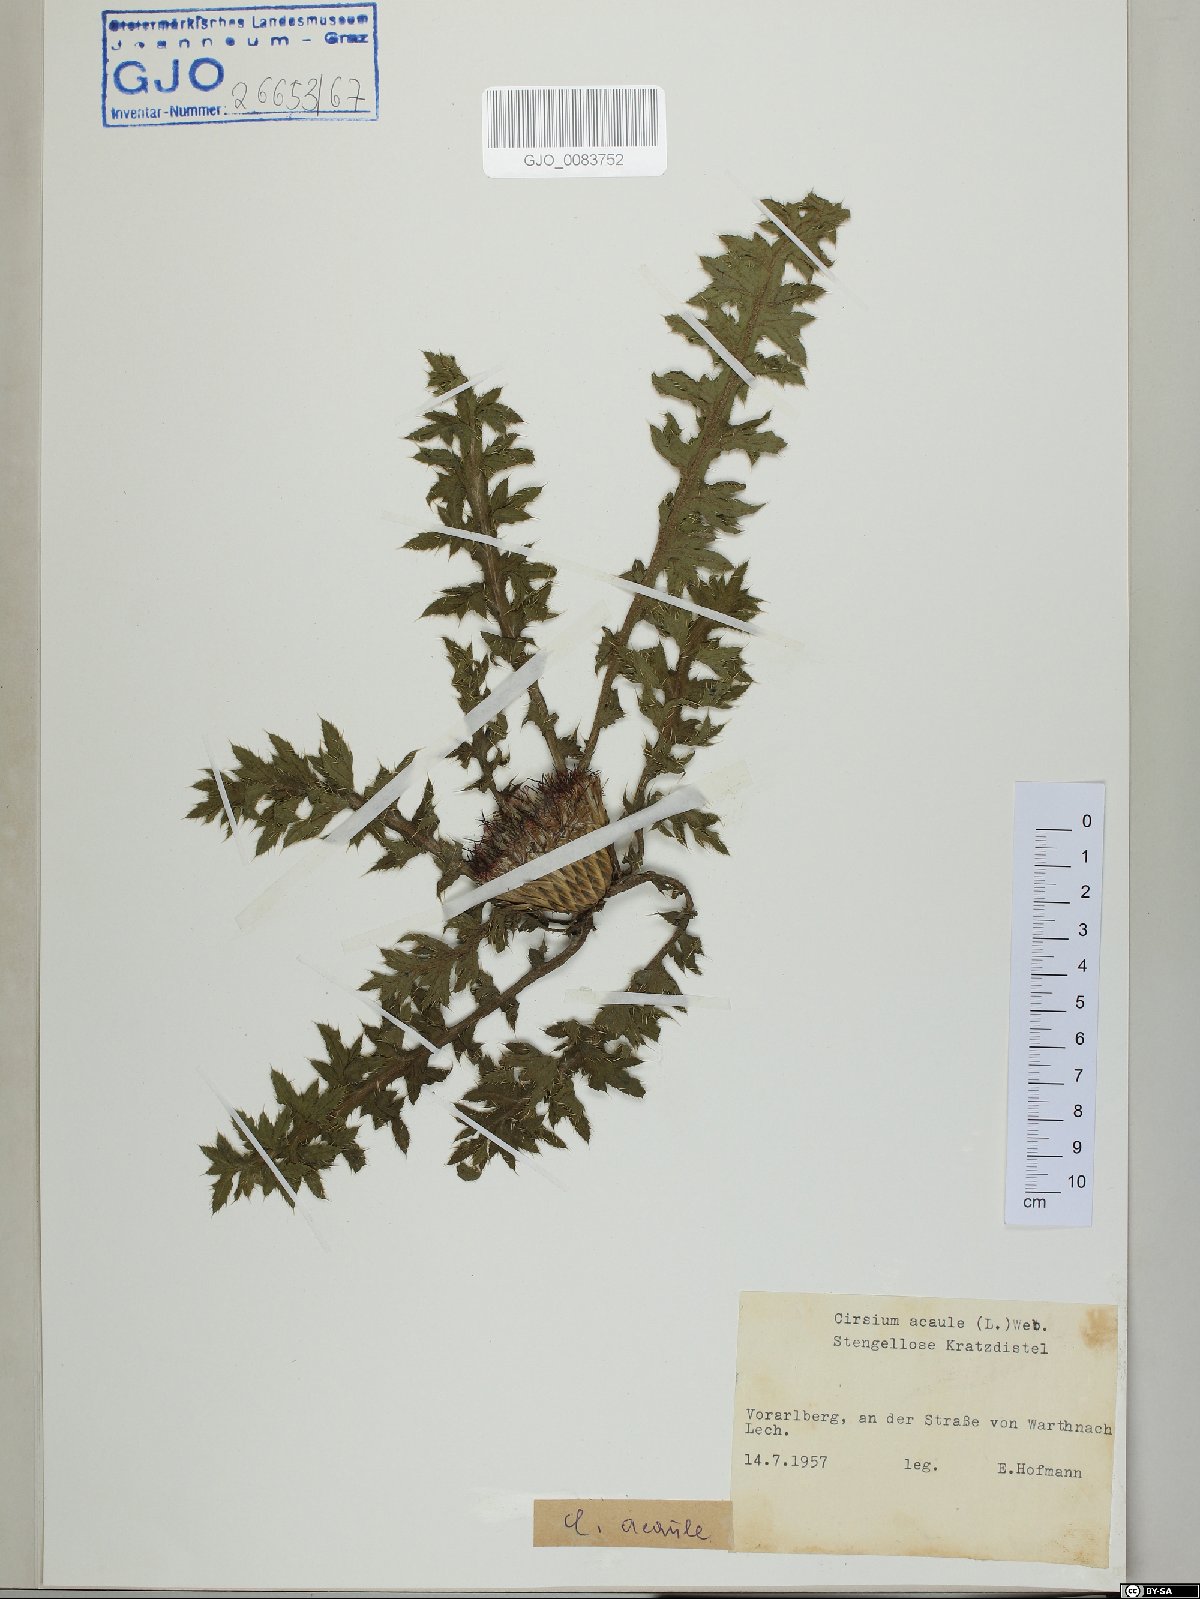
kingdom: Plantae
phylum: Tracheophyta
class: Magnoliopsida
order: Asterales
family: Asteraceae
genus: Cirsium
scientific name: Cirsium acaulon
